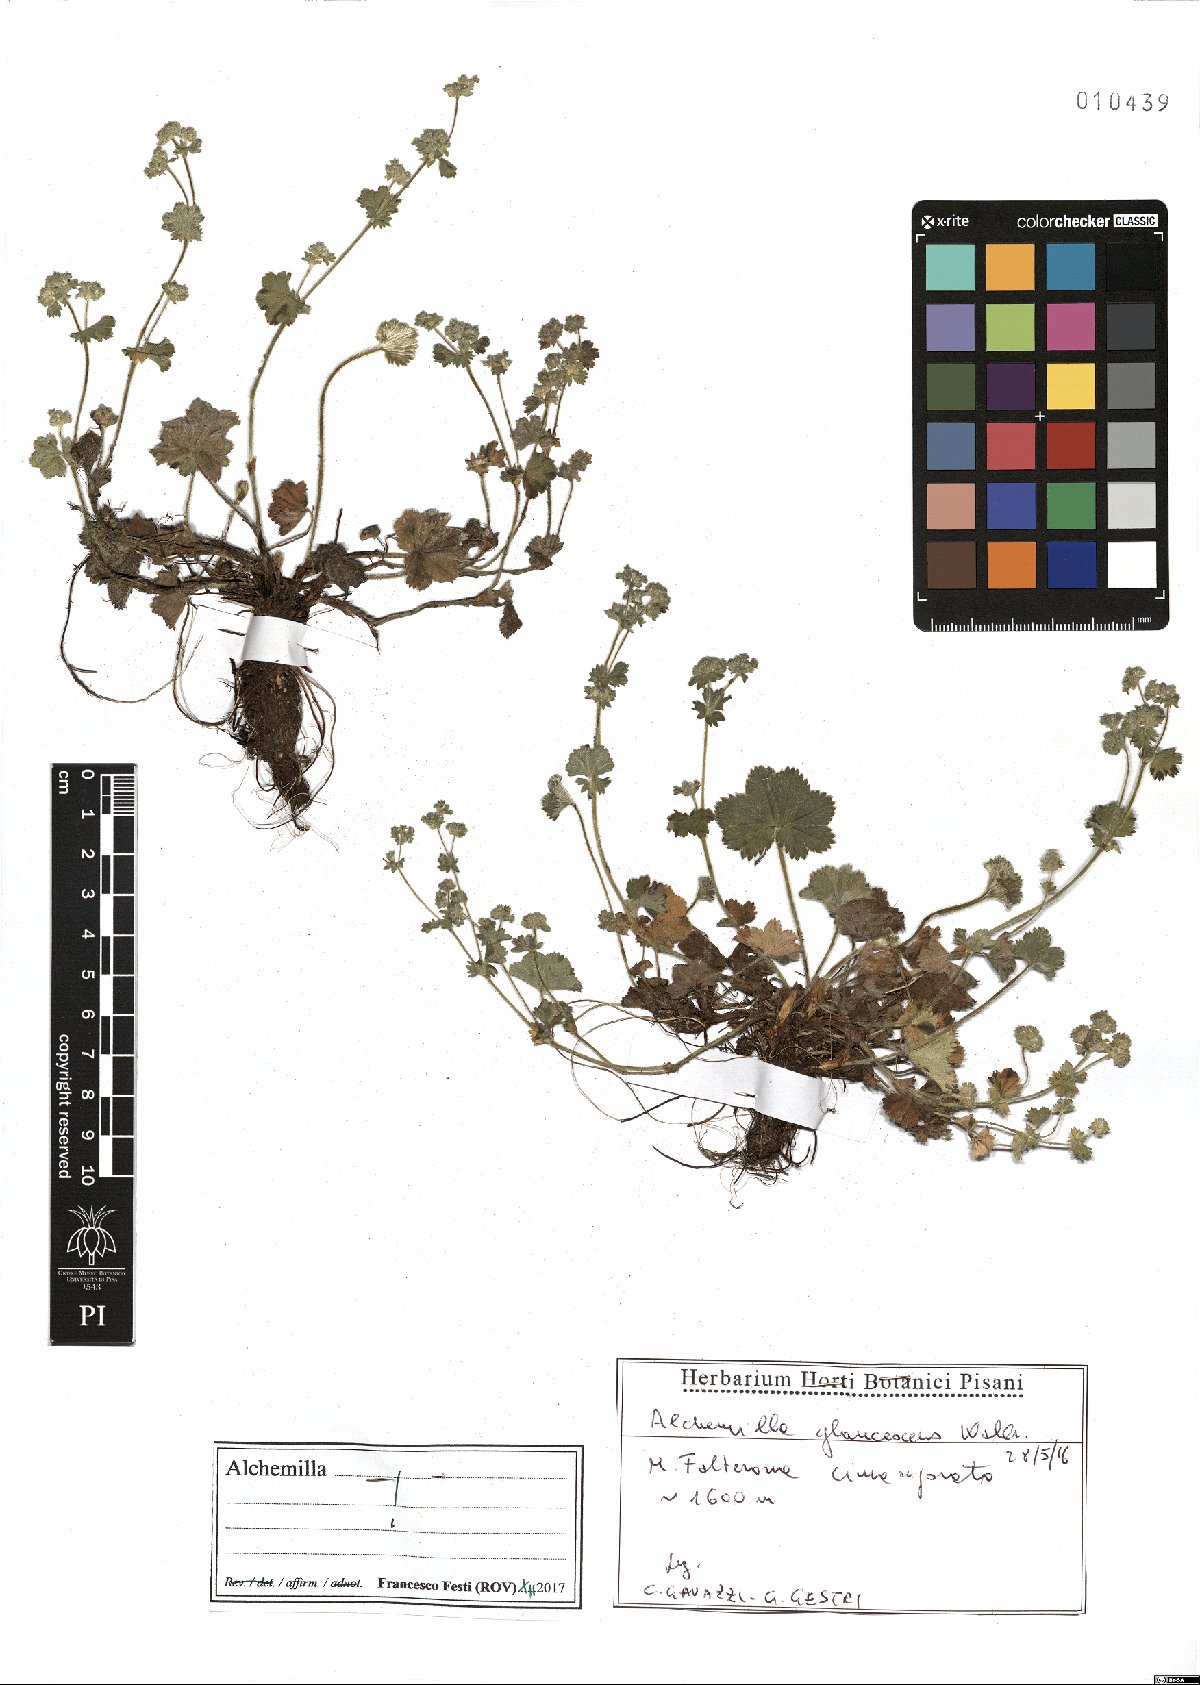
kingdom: Plantae
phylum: Tracheophyta
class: Magnoliopsida
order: Rosales
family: Rosaceae
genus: Alchemilla
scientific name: Alchemilla glaucescens
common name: Silky lady's mantle
